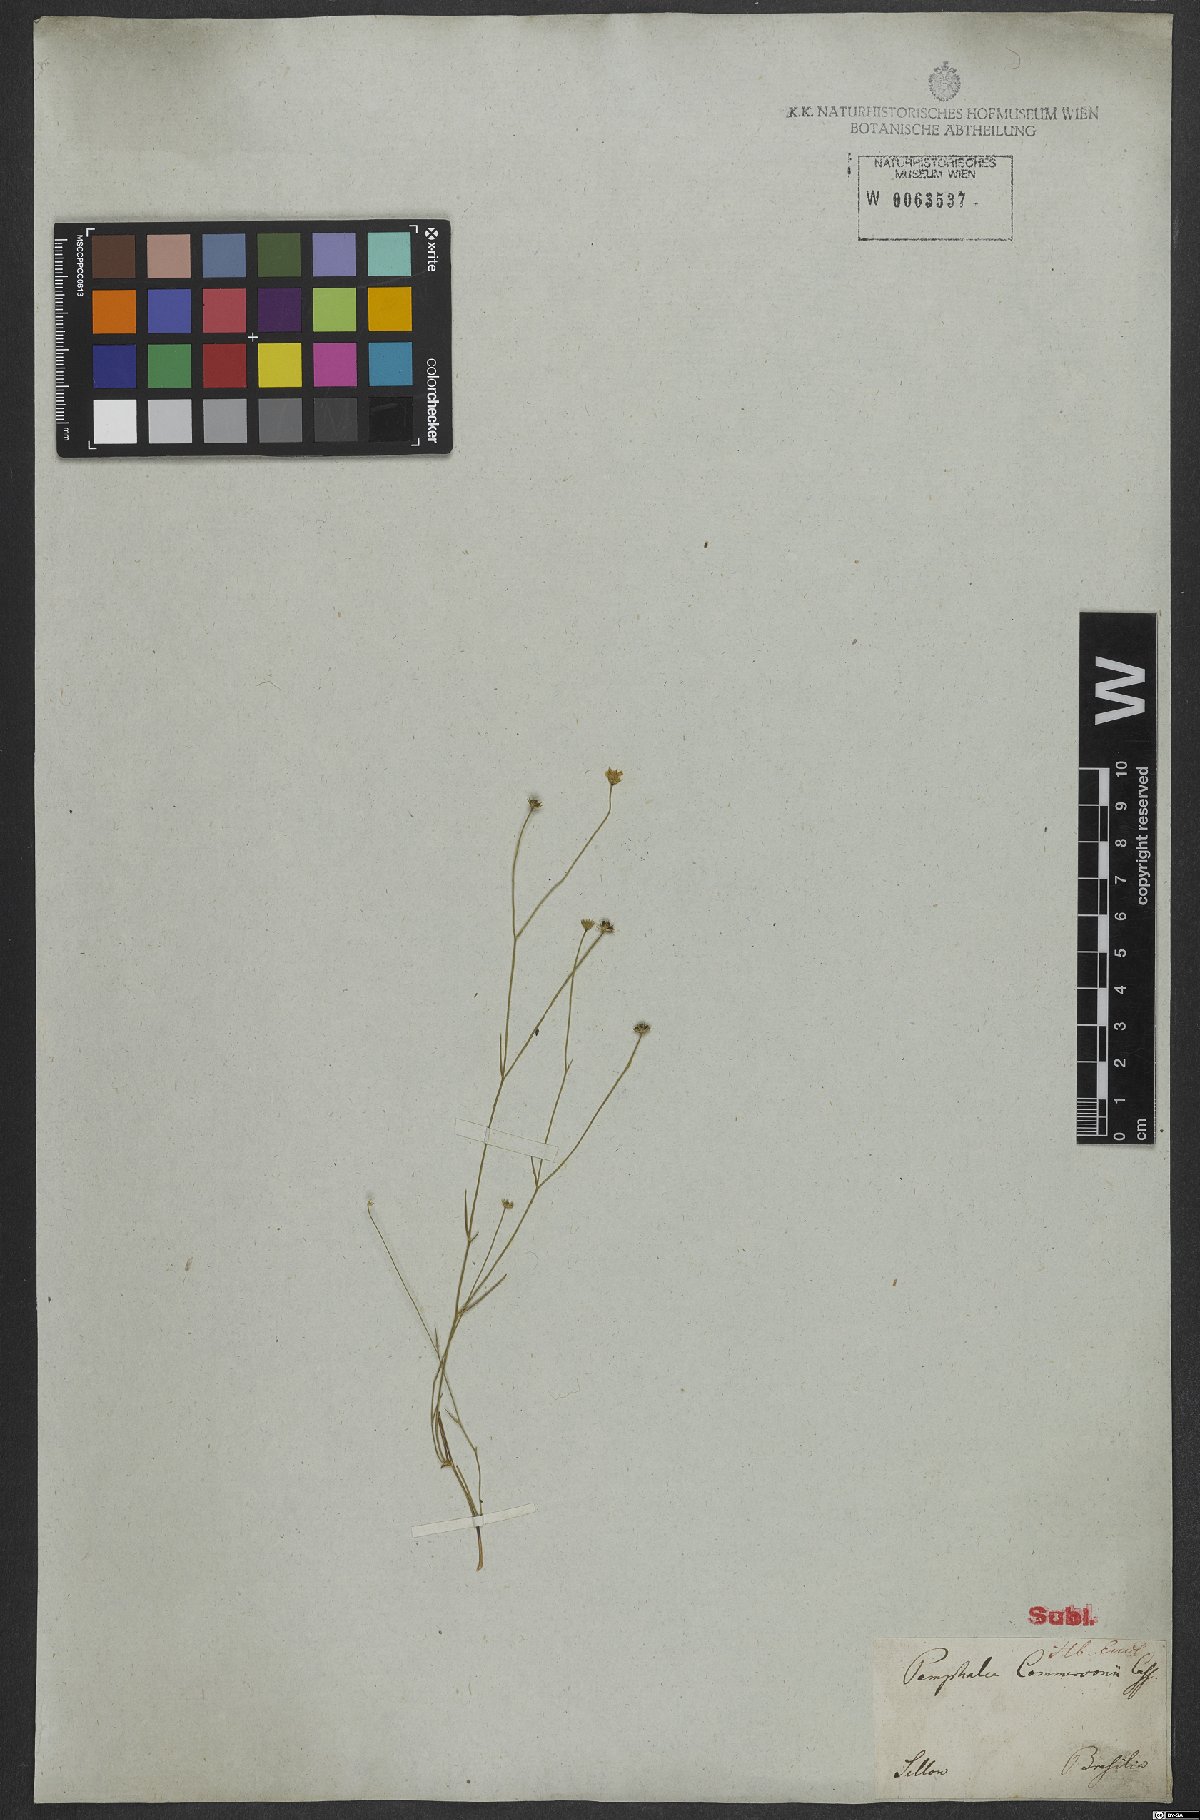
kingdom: Plantae
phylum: Tracheophyta
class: Magnoliopsida
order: Asterales
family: Asteraceae
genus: Panphalea
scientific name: Panphalea commersonii
